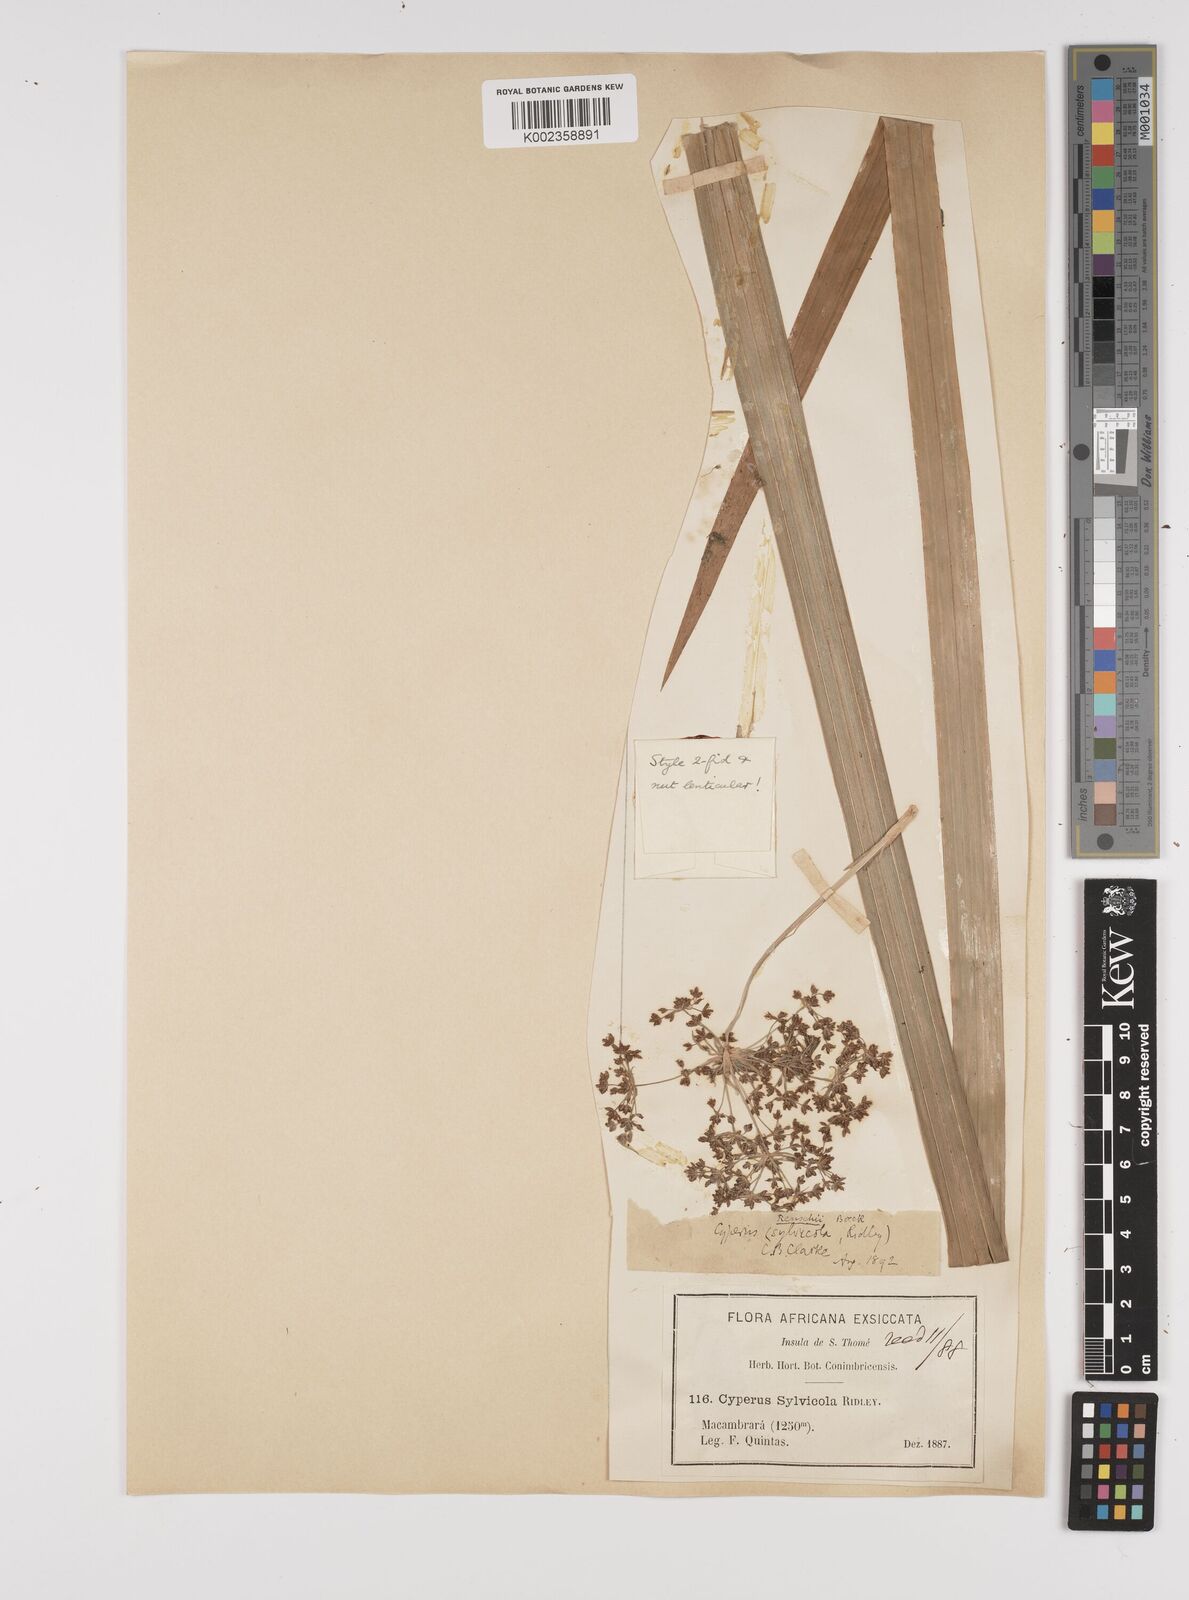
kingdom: Plantae
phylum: Tracheophyta
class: Liliopsida
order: Poales
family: Cyperaceae
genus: Cyperus
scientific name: Cyperus renschii
